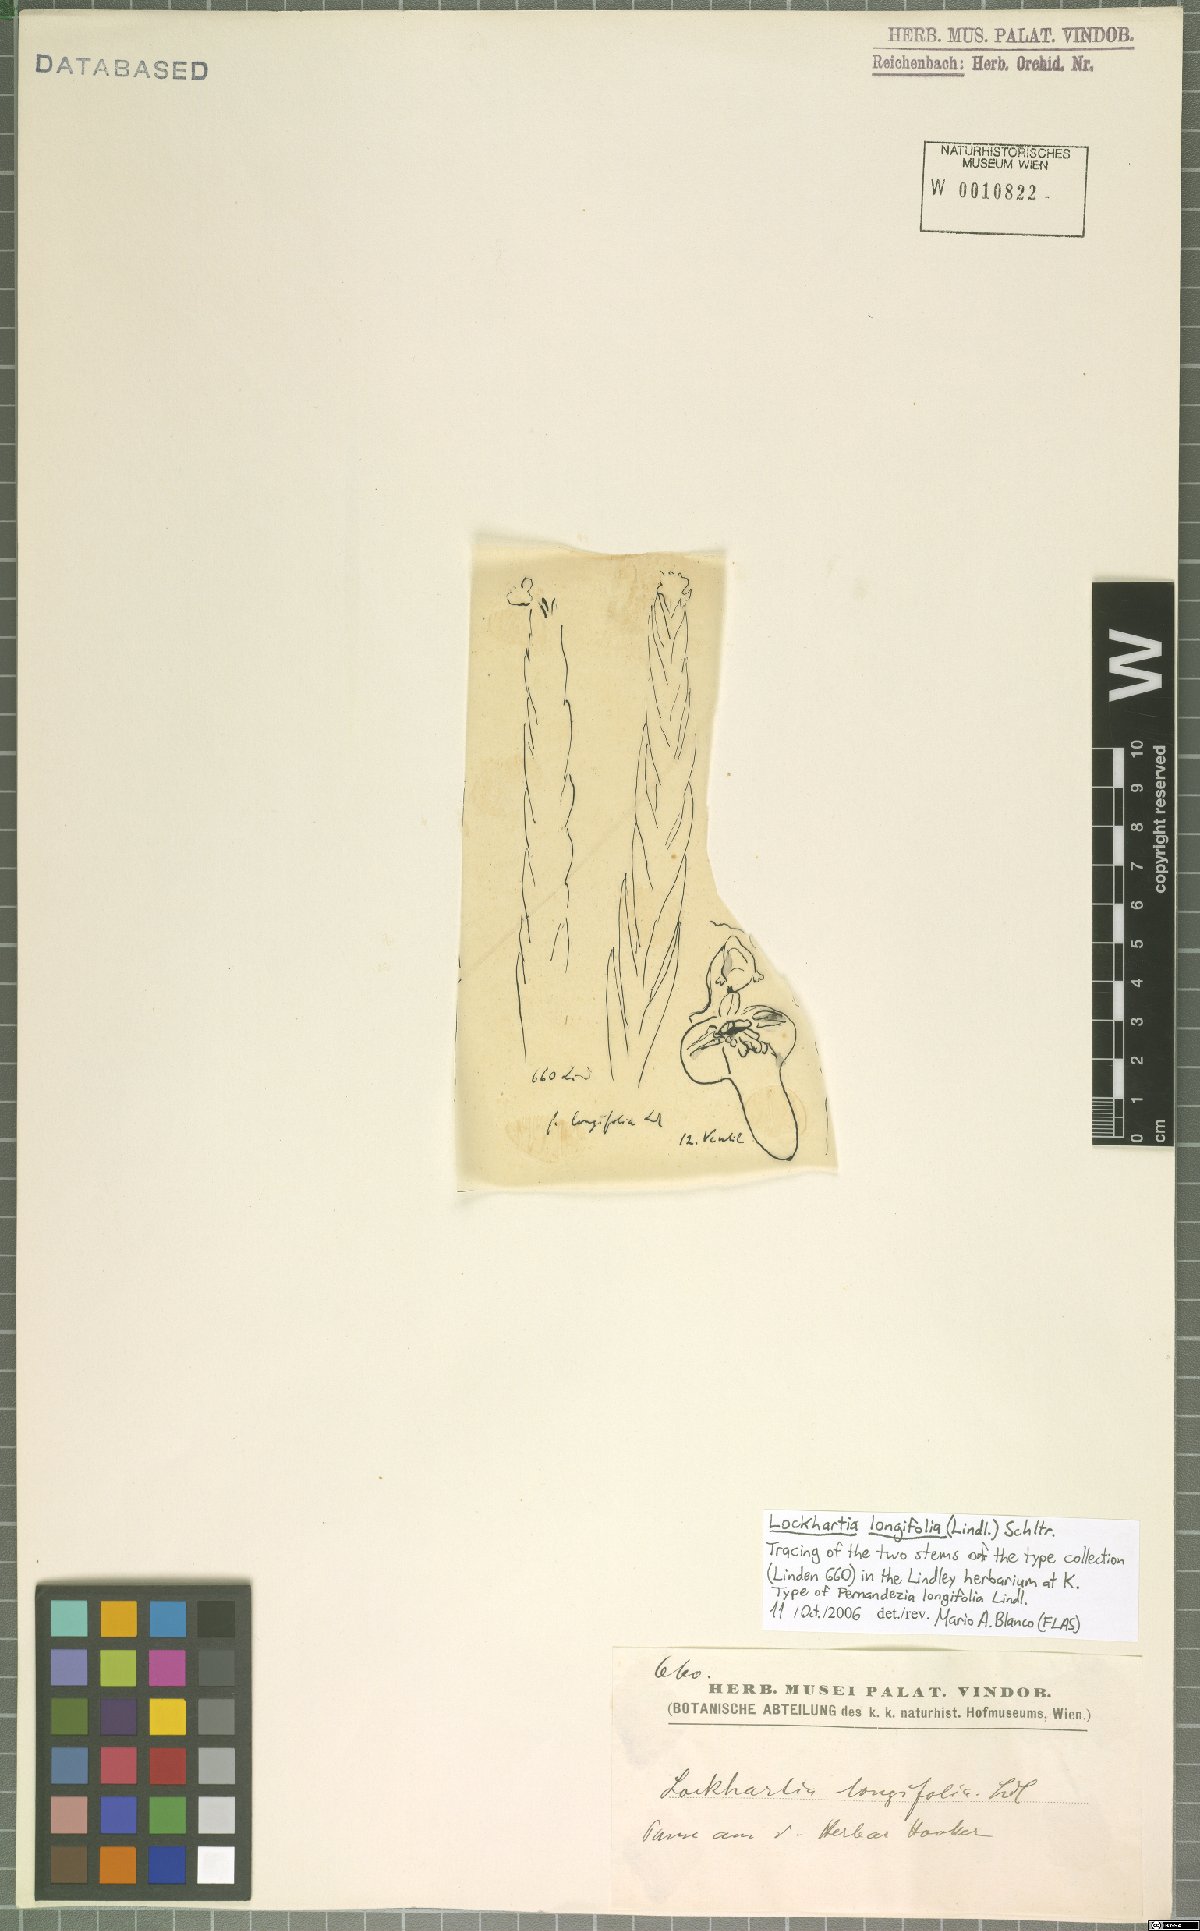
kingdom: Plantae
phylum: Tracheophyta
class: Liliopsida
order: Asparagales
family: Orchidaceae
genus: Lockhartia
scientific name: Lockhartia parthenocomos
